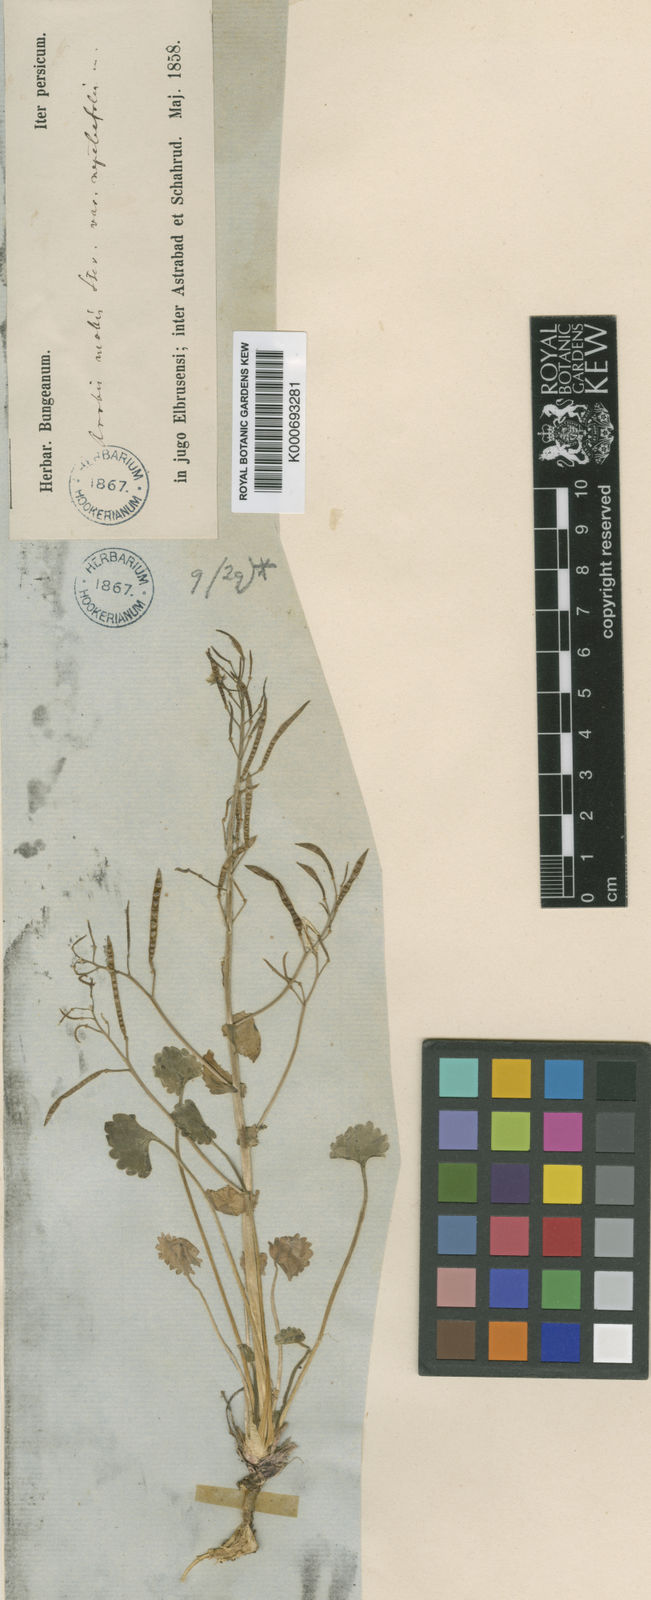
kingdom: Plantae
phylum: Tracheophyta
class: Magnoliopsida
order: Brassicales
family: Brassicaceae
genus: Arabis
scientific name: Arabis nepetifolia
